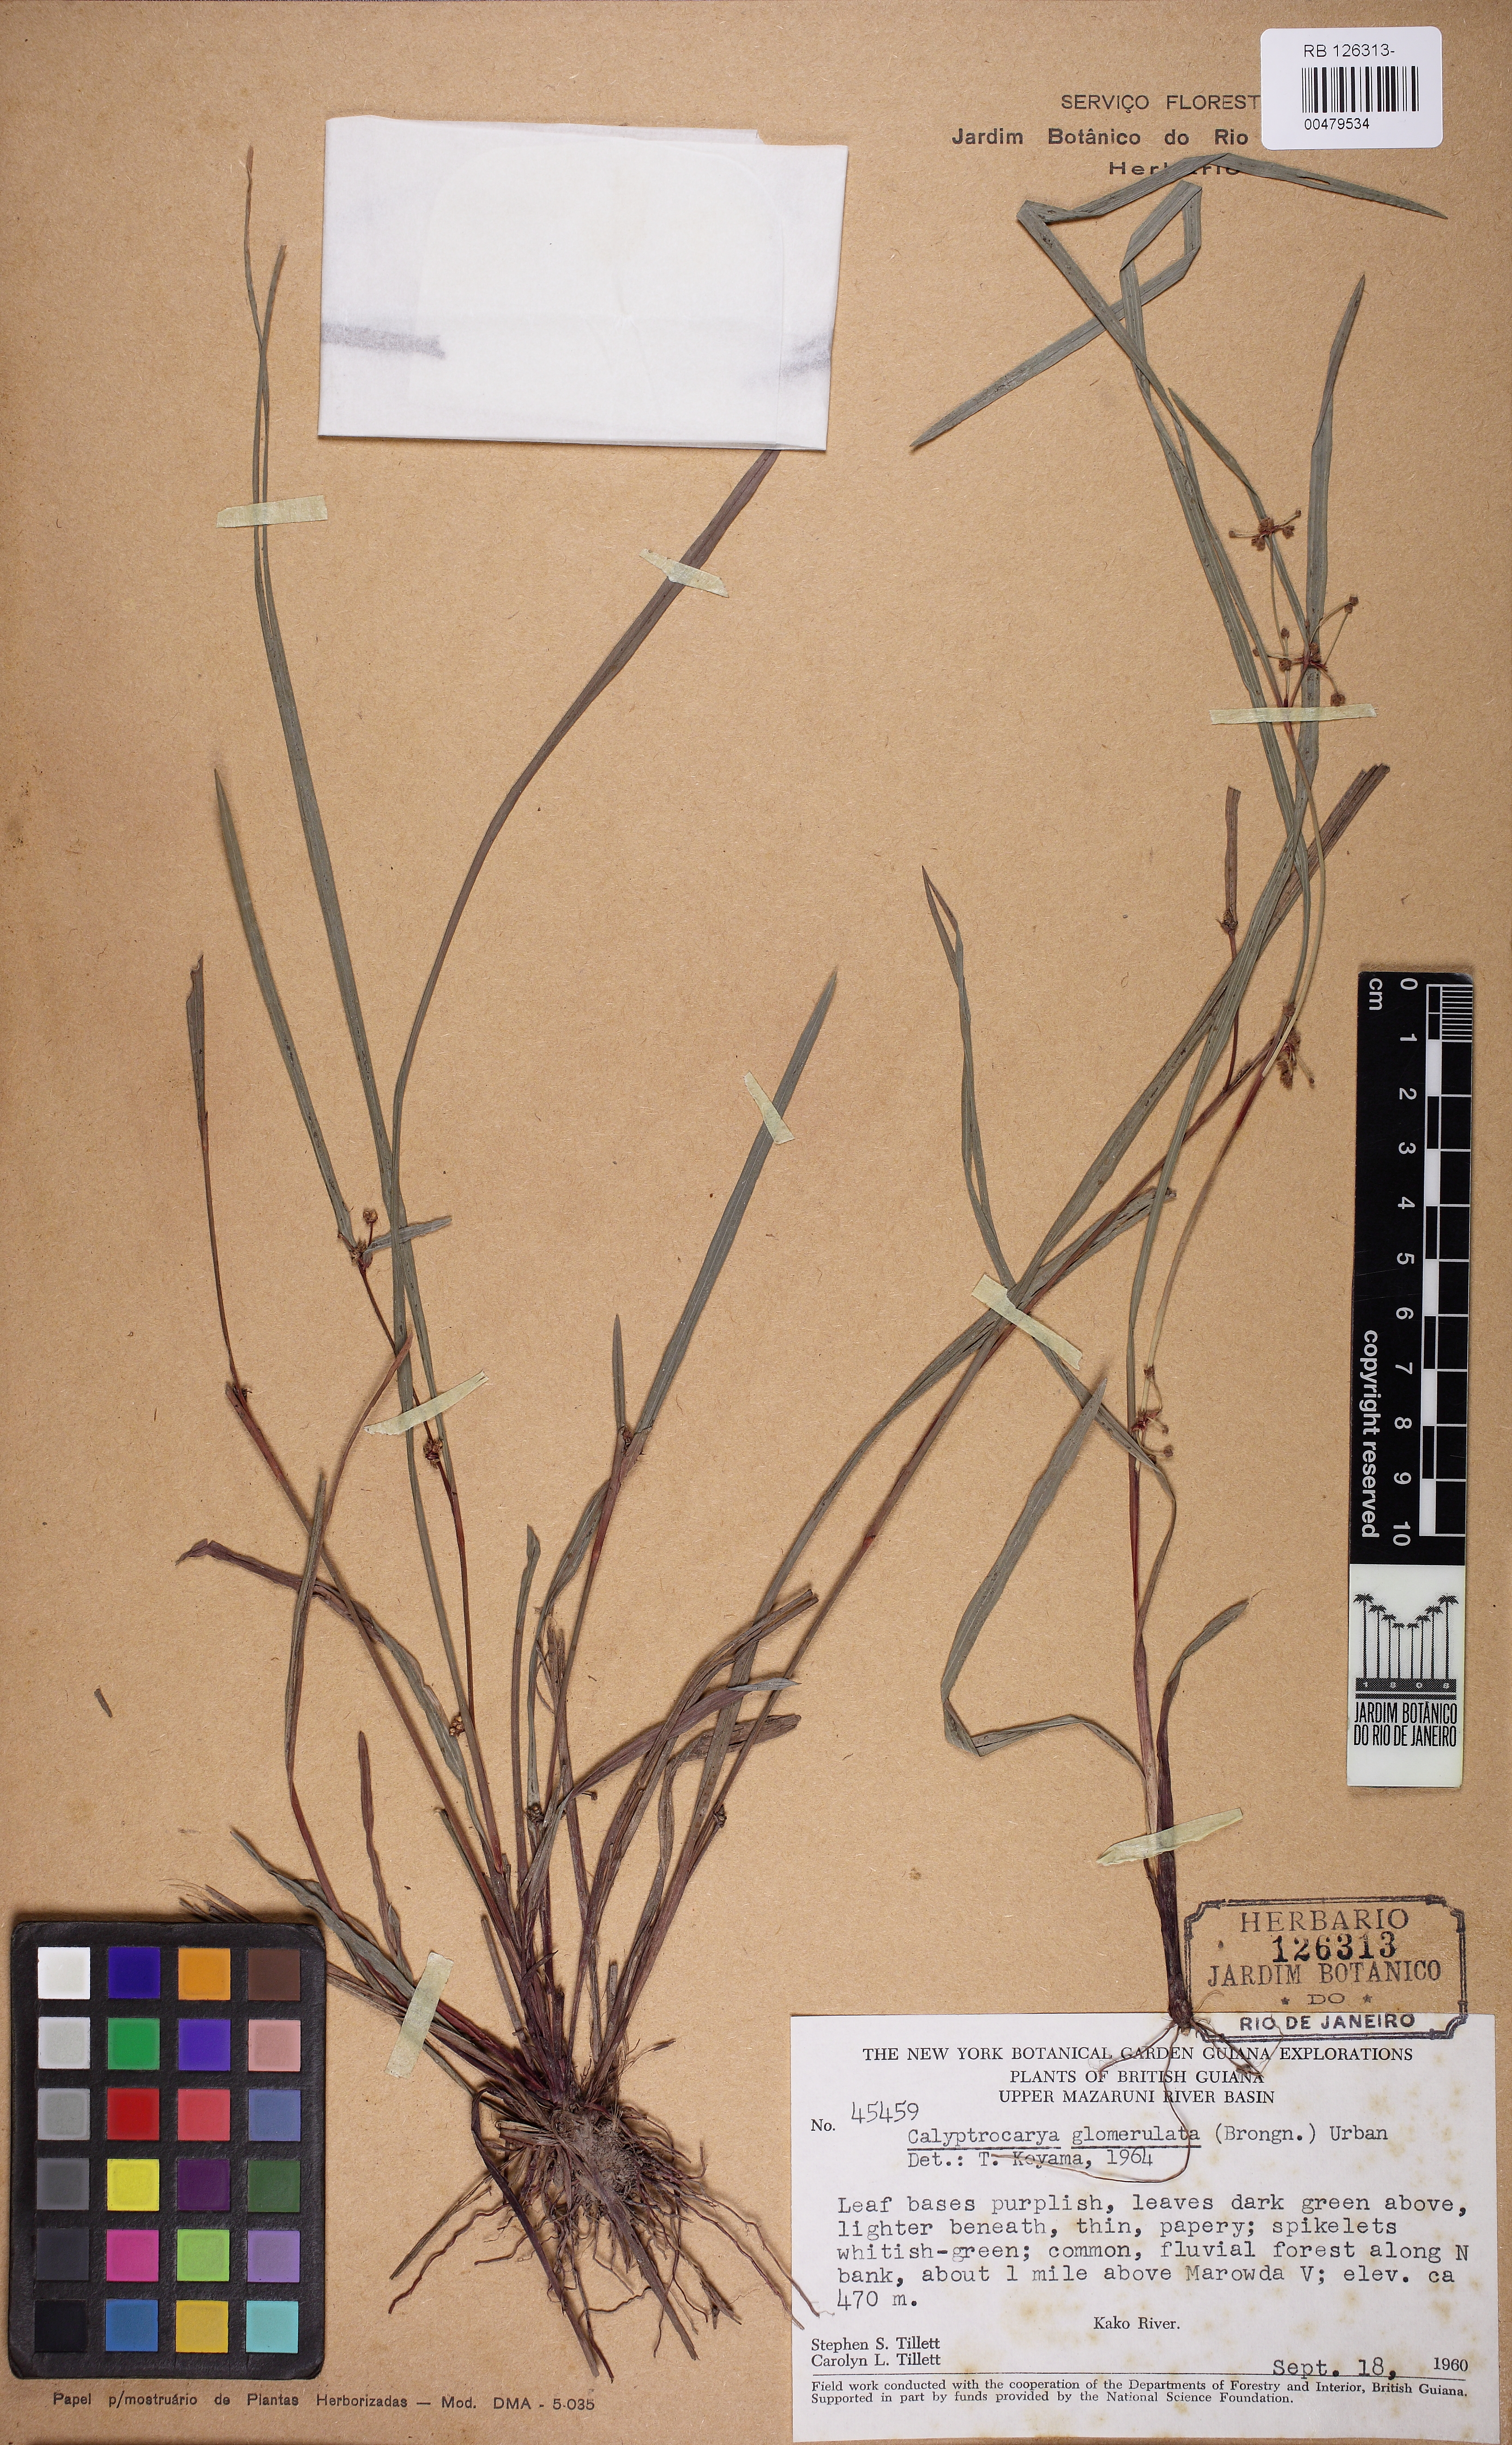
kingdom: Plantae
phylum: Tracheophyta
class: Liliopsida
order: Poales
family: Cyperaceae
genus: Calyptrocarya
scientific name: Calyptrocarya glomerulata
